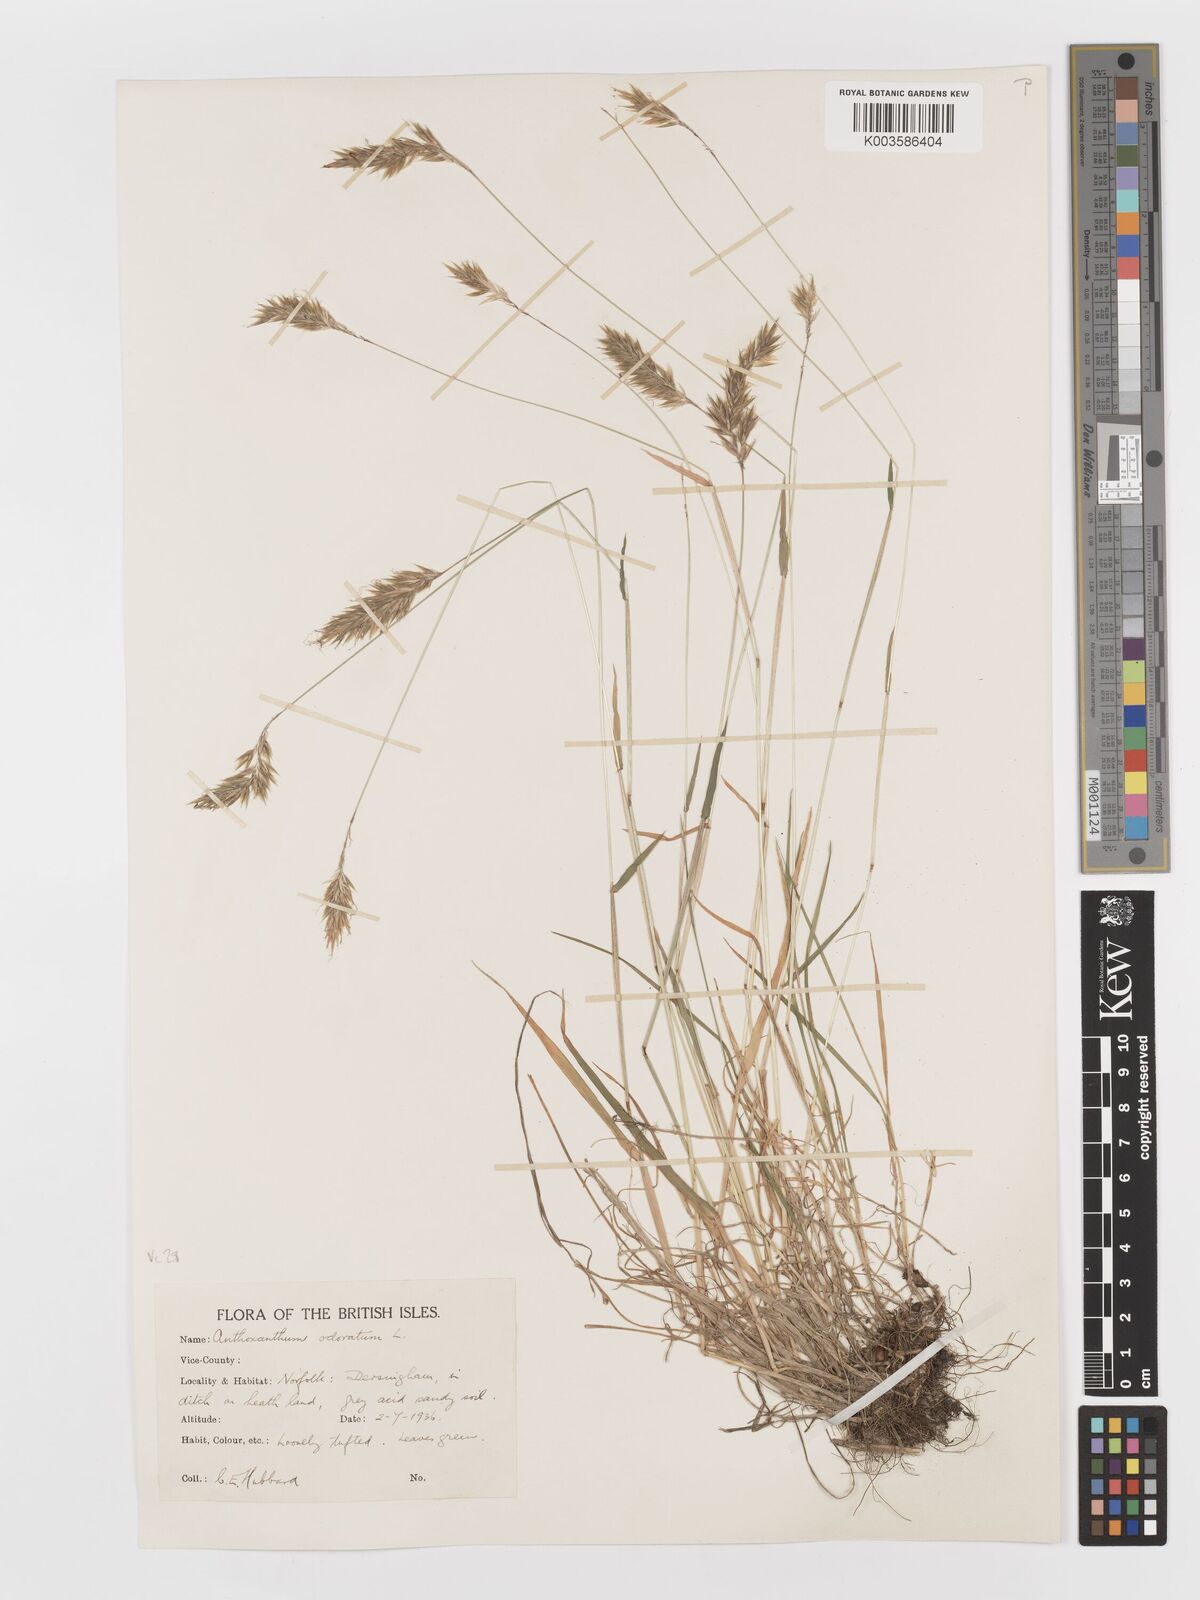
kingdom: Plantae
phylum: Tracheophyta
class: Liliopsida
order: Poales
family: Poaceae
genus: Anthoxanthum
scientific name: Anthoxanthum odoratum
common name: Sweet vernalgrass
